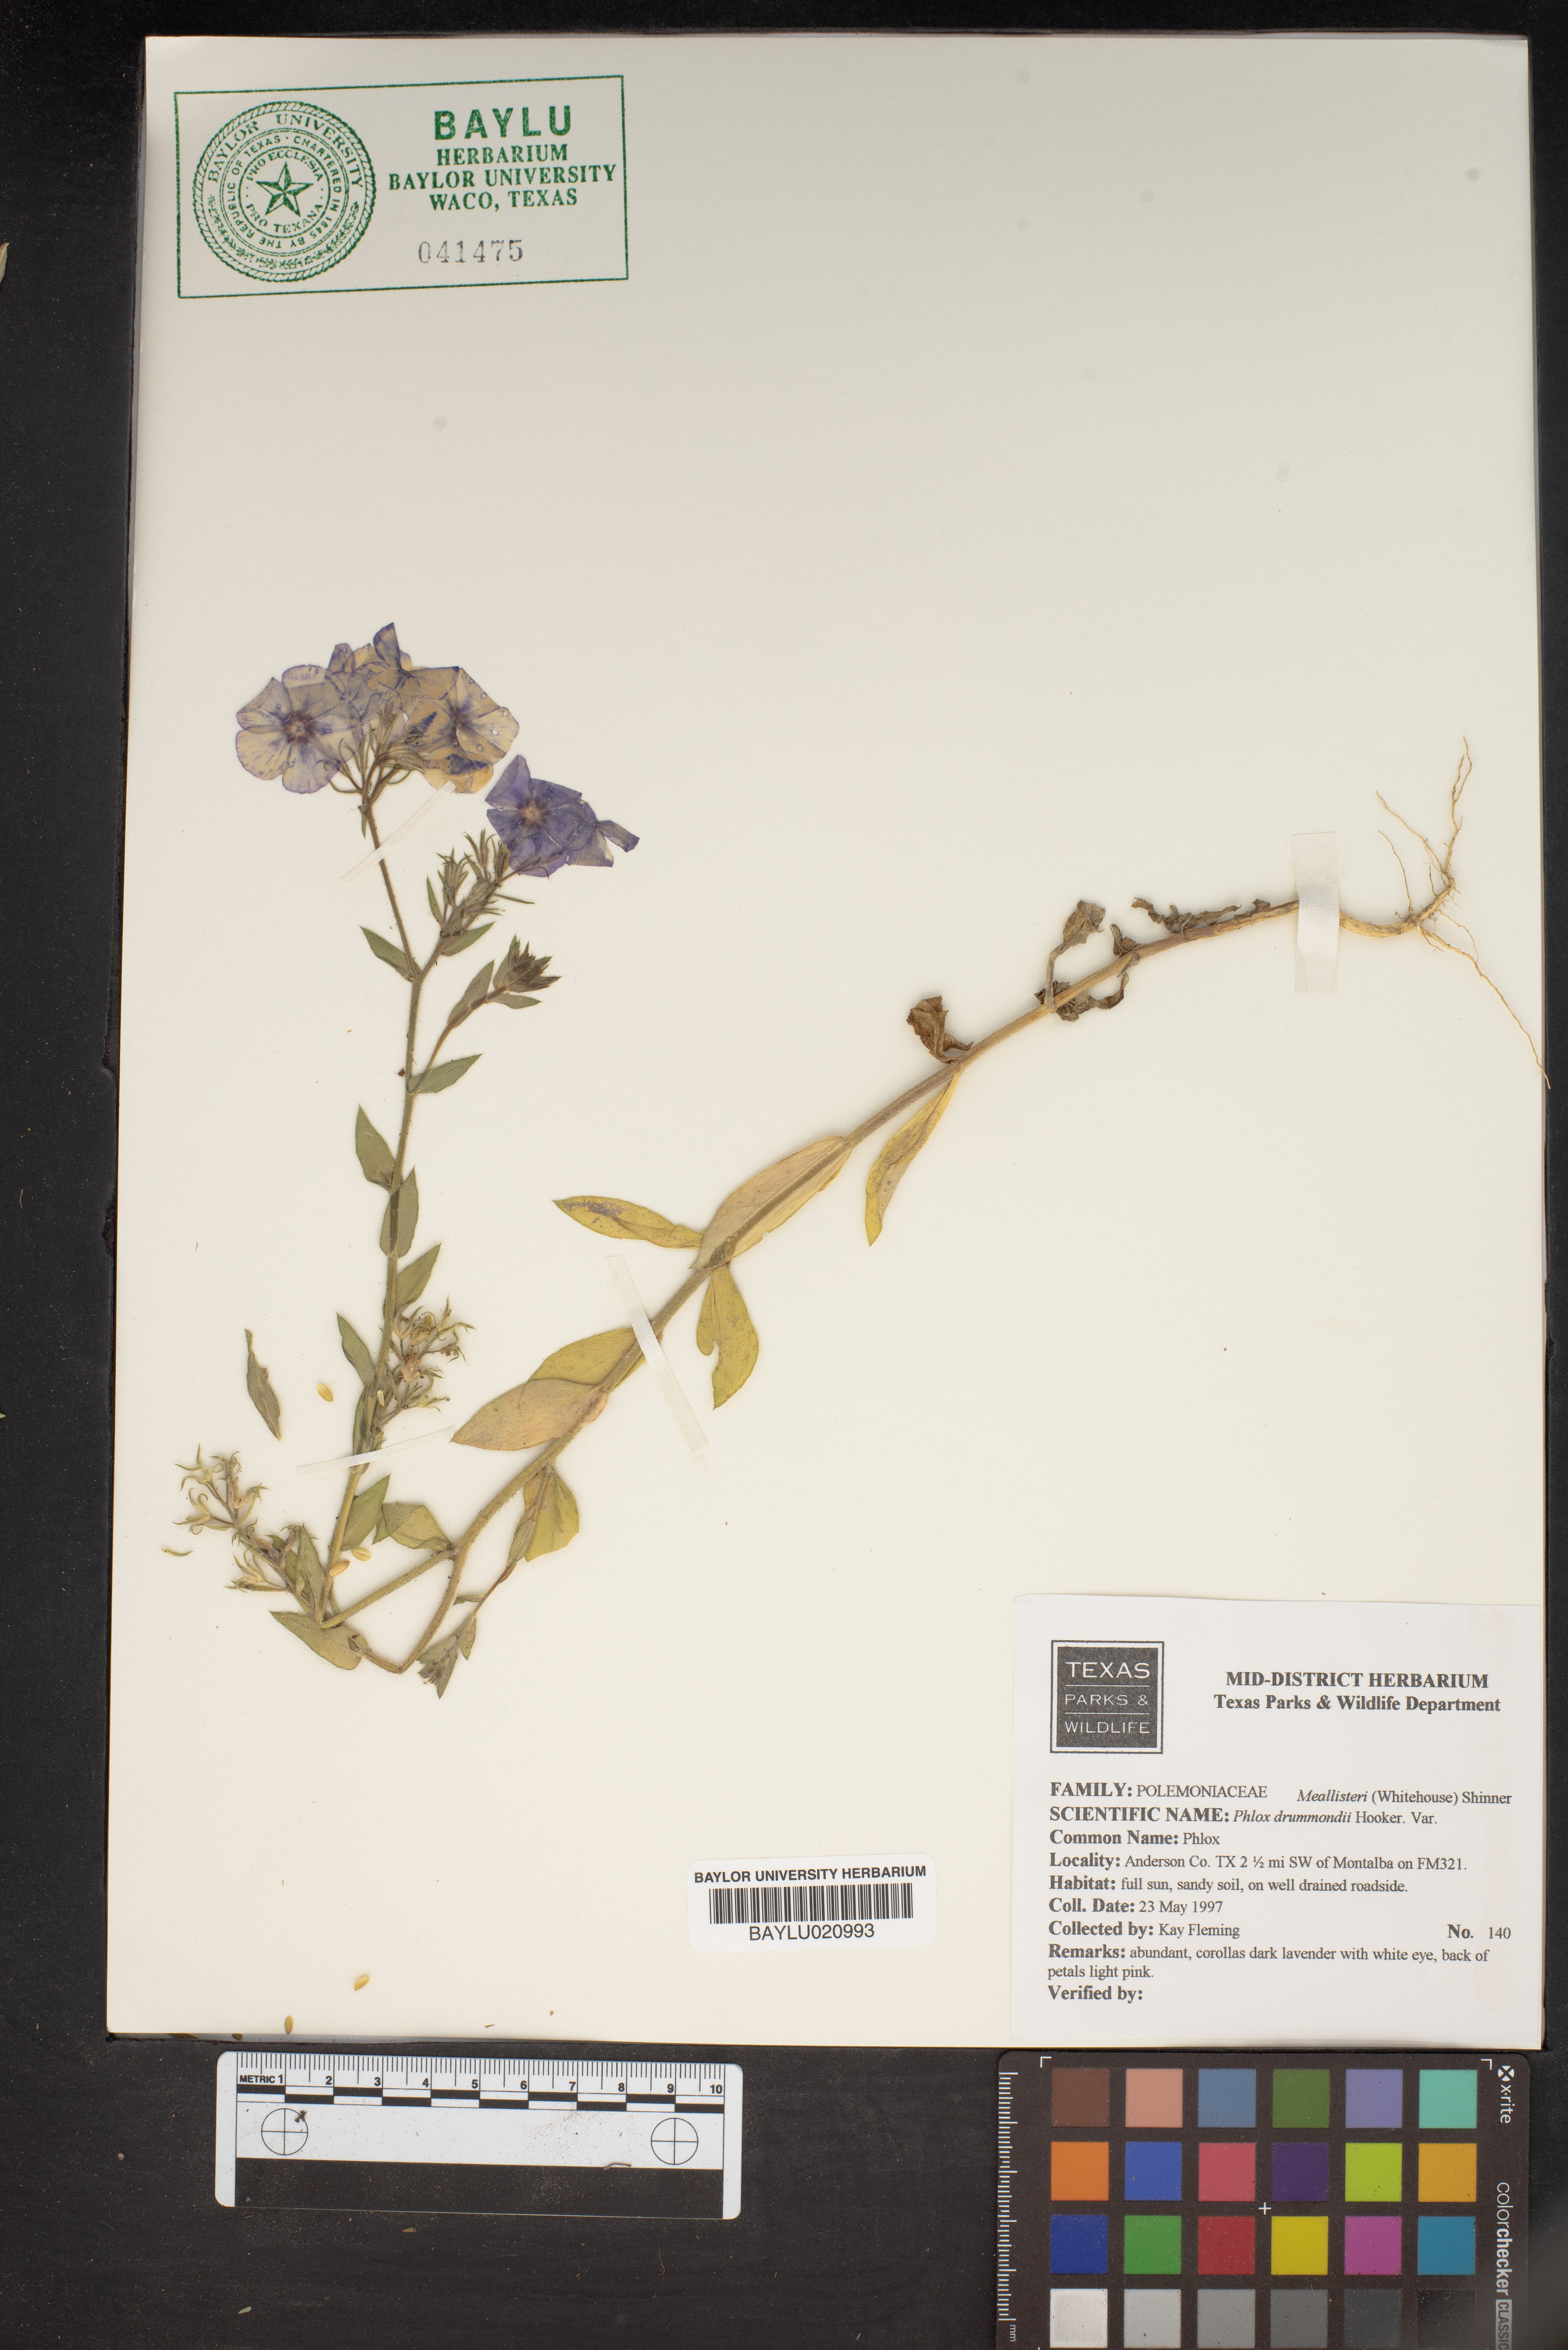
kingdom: Plantae
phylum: Tracheophyta
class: Magnoliopsida
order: Ericales
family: Polemoniaceae
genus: Phlox
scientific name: Phlox drummondii
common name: Drummond's phlox
